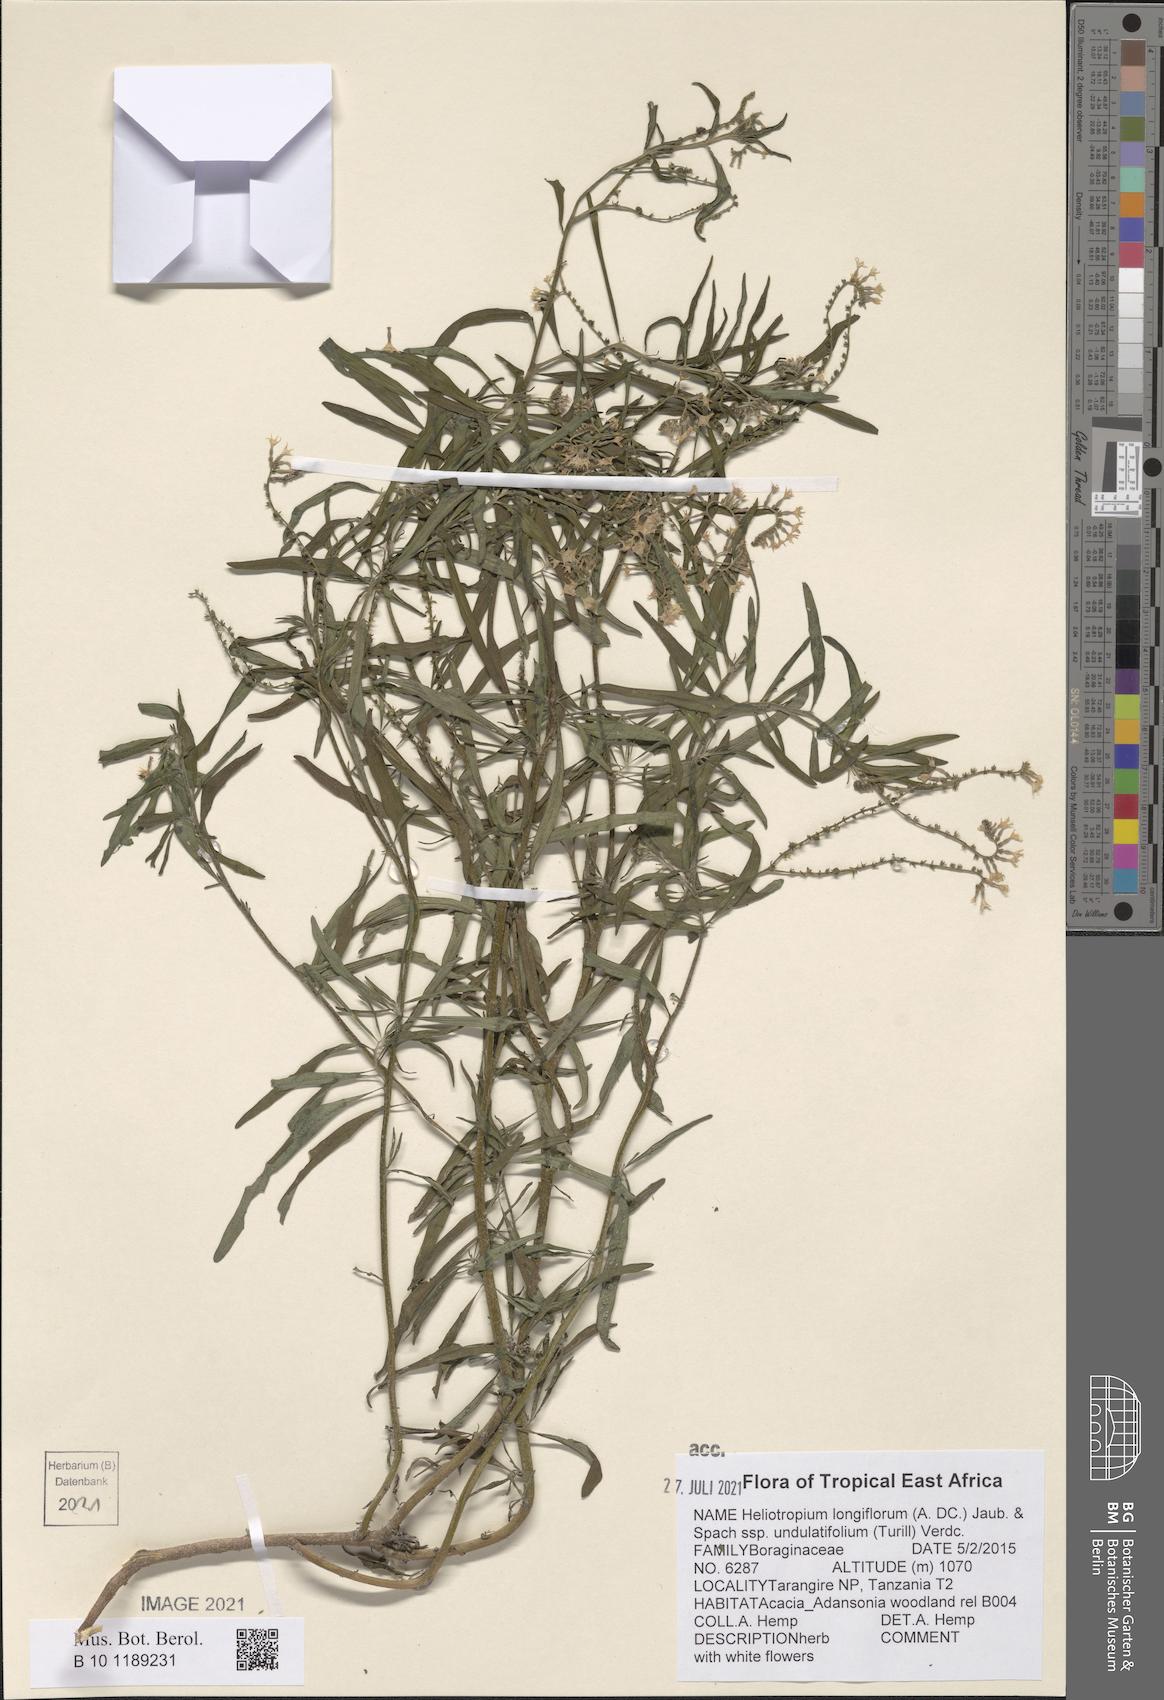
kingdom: Plantae
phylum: Tracheophyta
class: Magnoliopsida
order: Boraginales
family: Heliotropiaceae
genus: Heliotropium
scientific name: Heliotropium longiflorum
